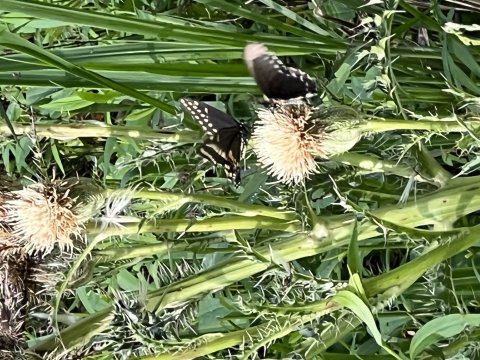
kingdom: Animalia
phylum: Arthropoda
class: Insecta
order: Lepidoptera
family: Papilionidae
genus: Battus
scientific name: Battus philenor
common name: Pipevine Swallowtail
